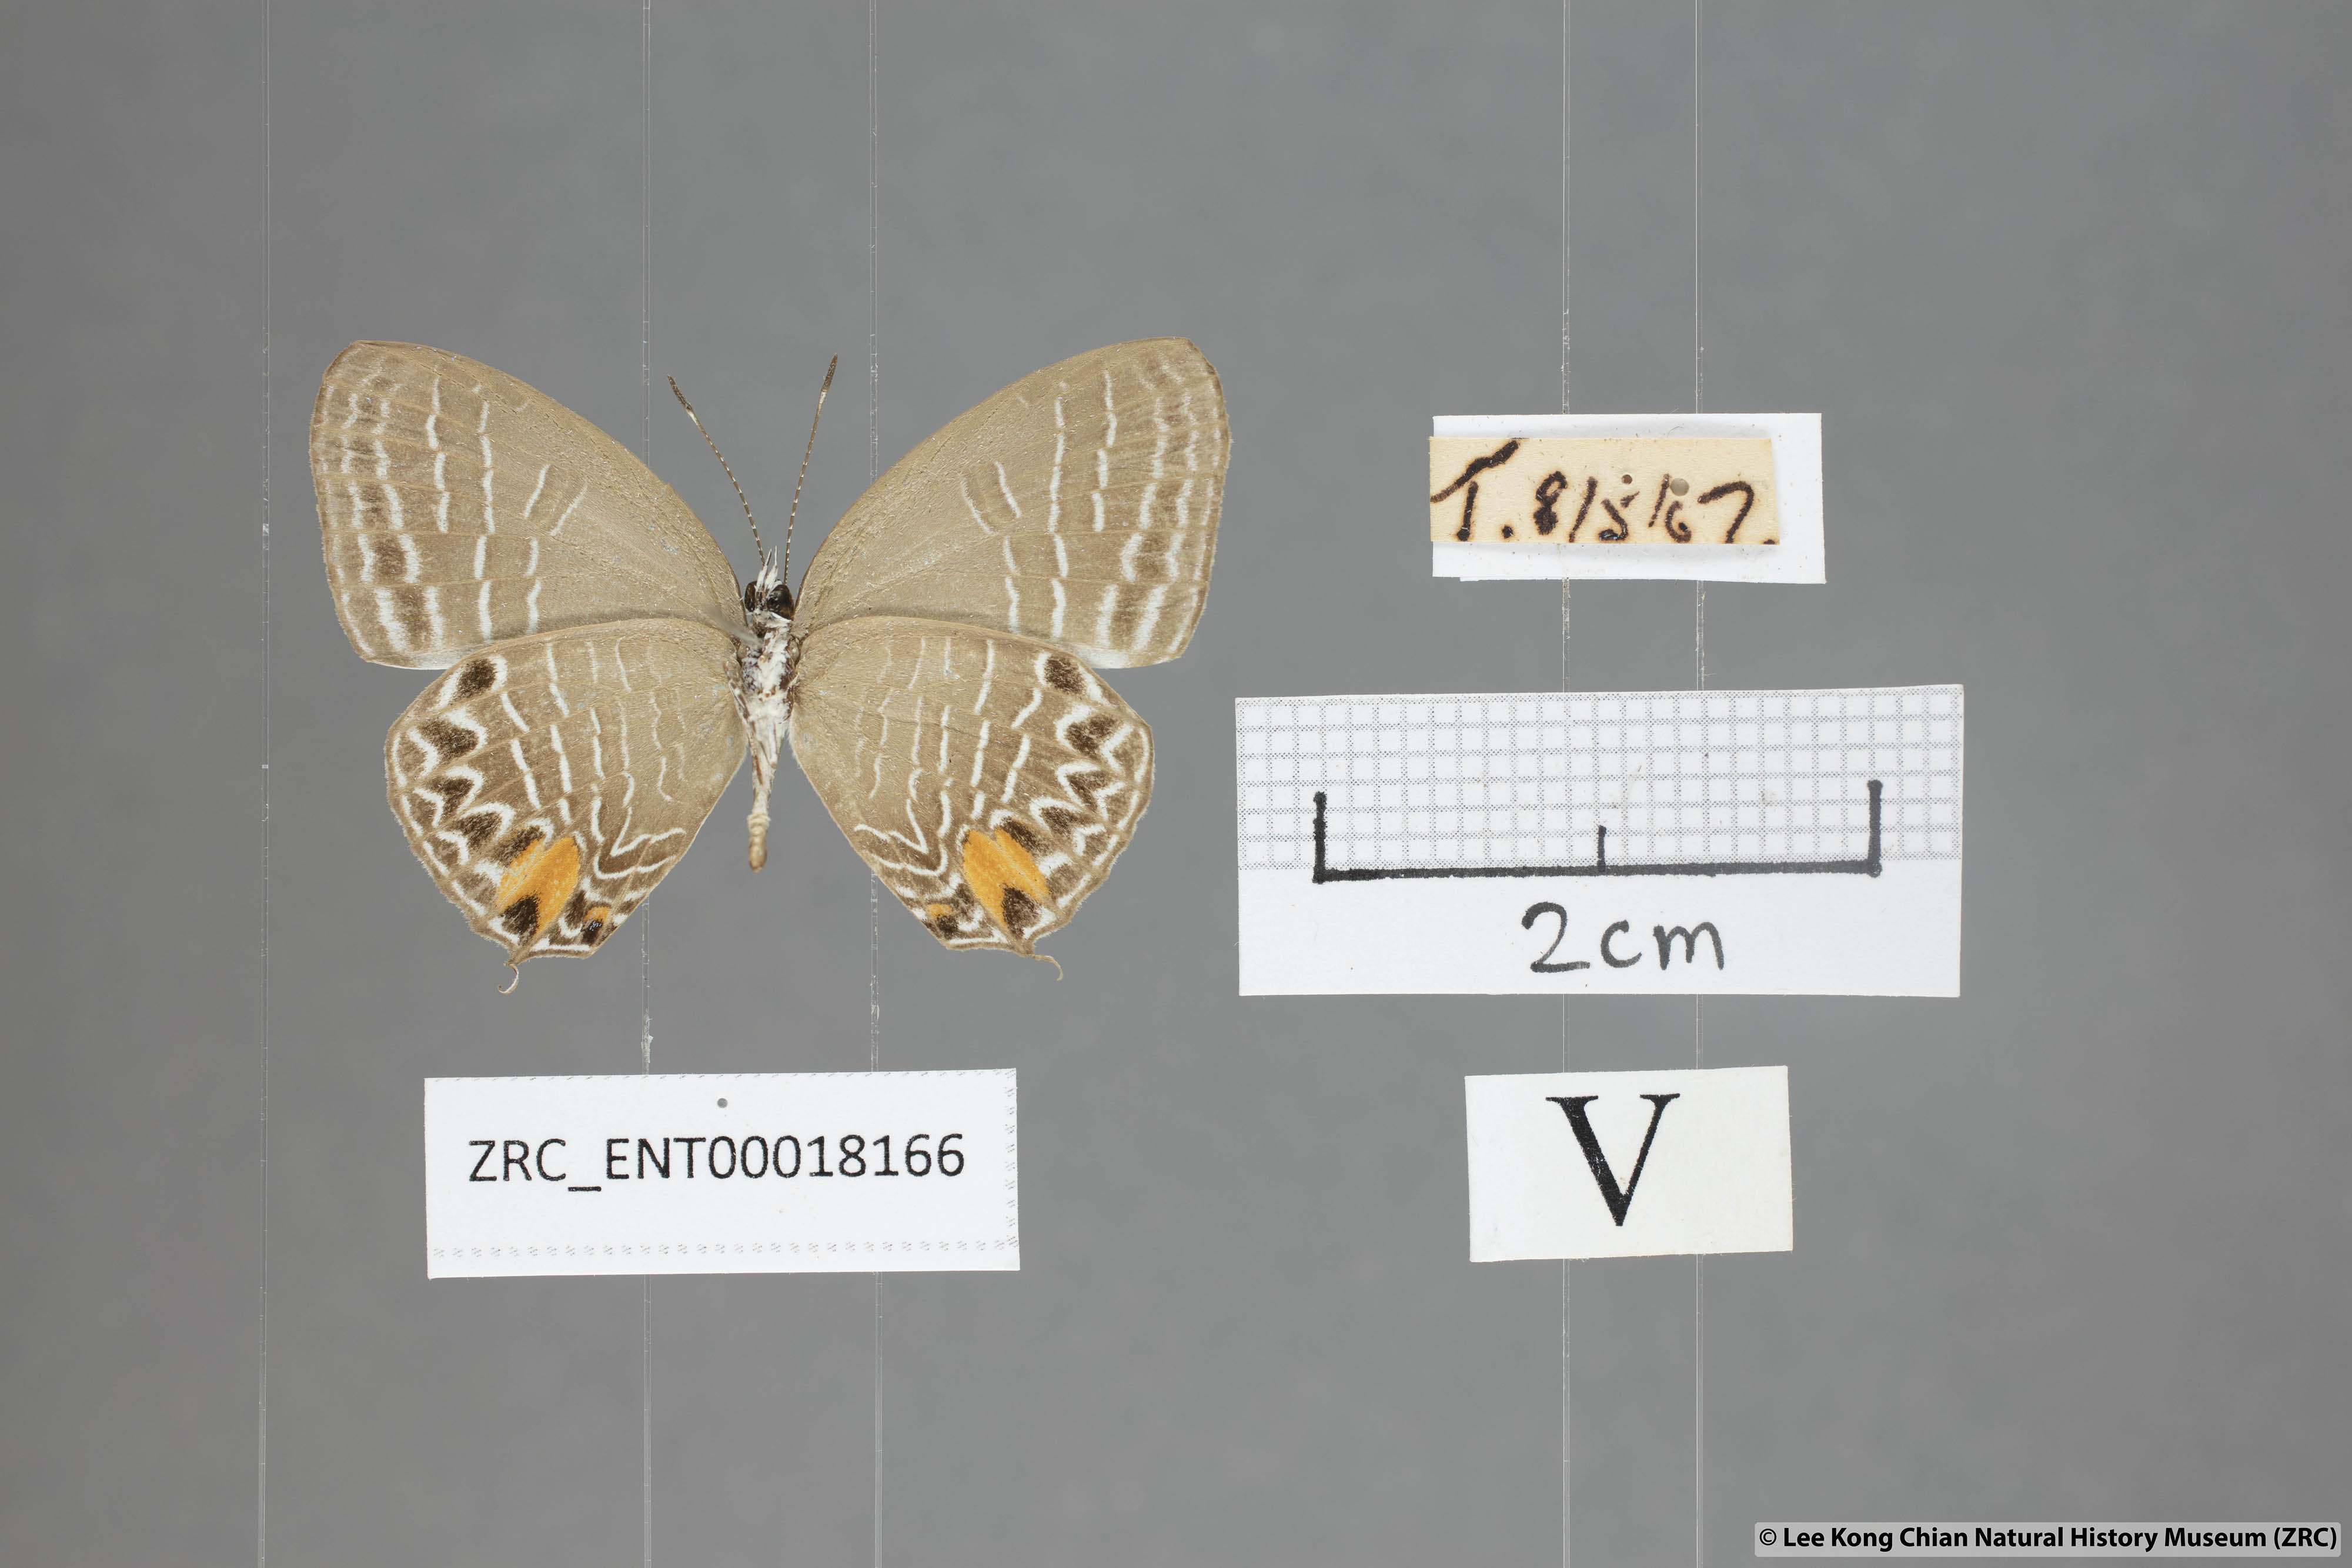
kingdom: Animalia
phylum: Arthropoda
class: Insecta
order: Lepidoptera
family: Lycaenidae
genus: Jamides
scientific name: Jamides
